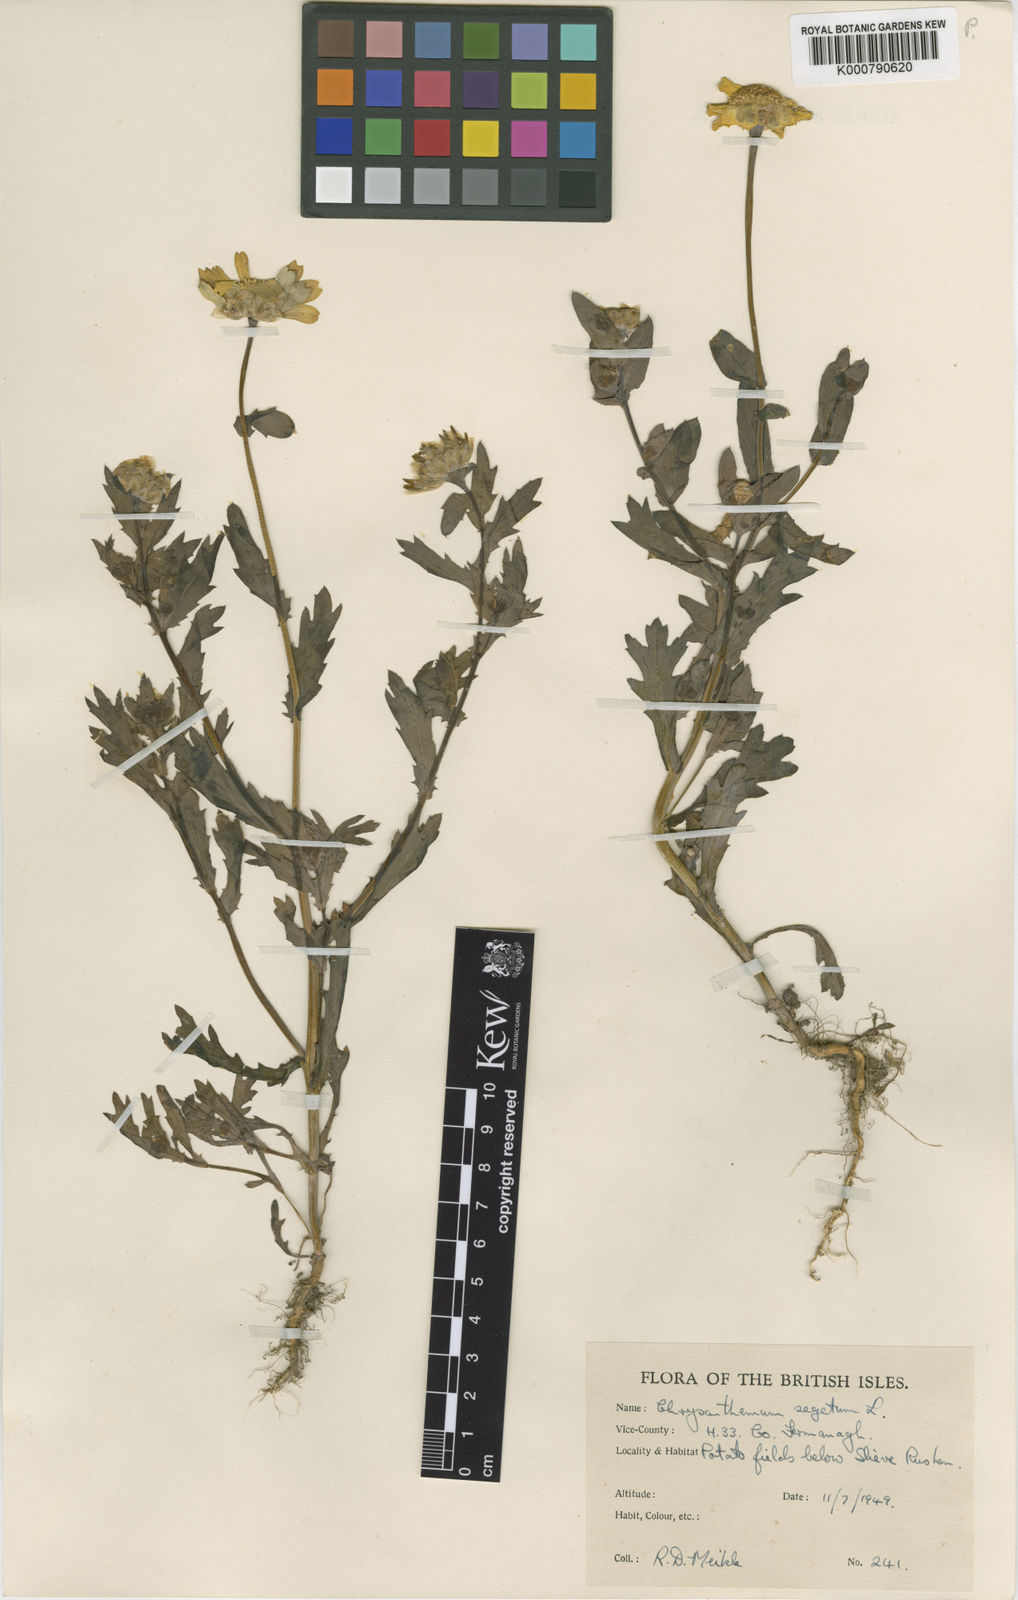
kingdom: Plantae
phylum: Tracheophyta
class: Magnoliopsida
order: Asterales
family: Asteraceae
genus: Glebionis
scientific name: Glebionis
